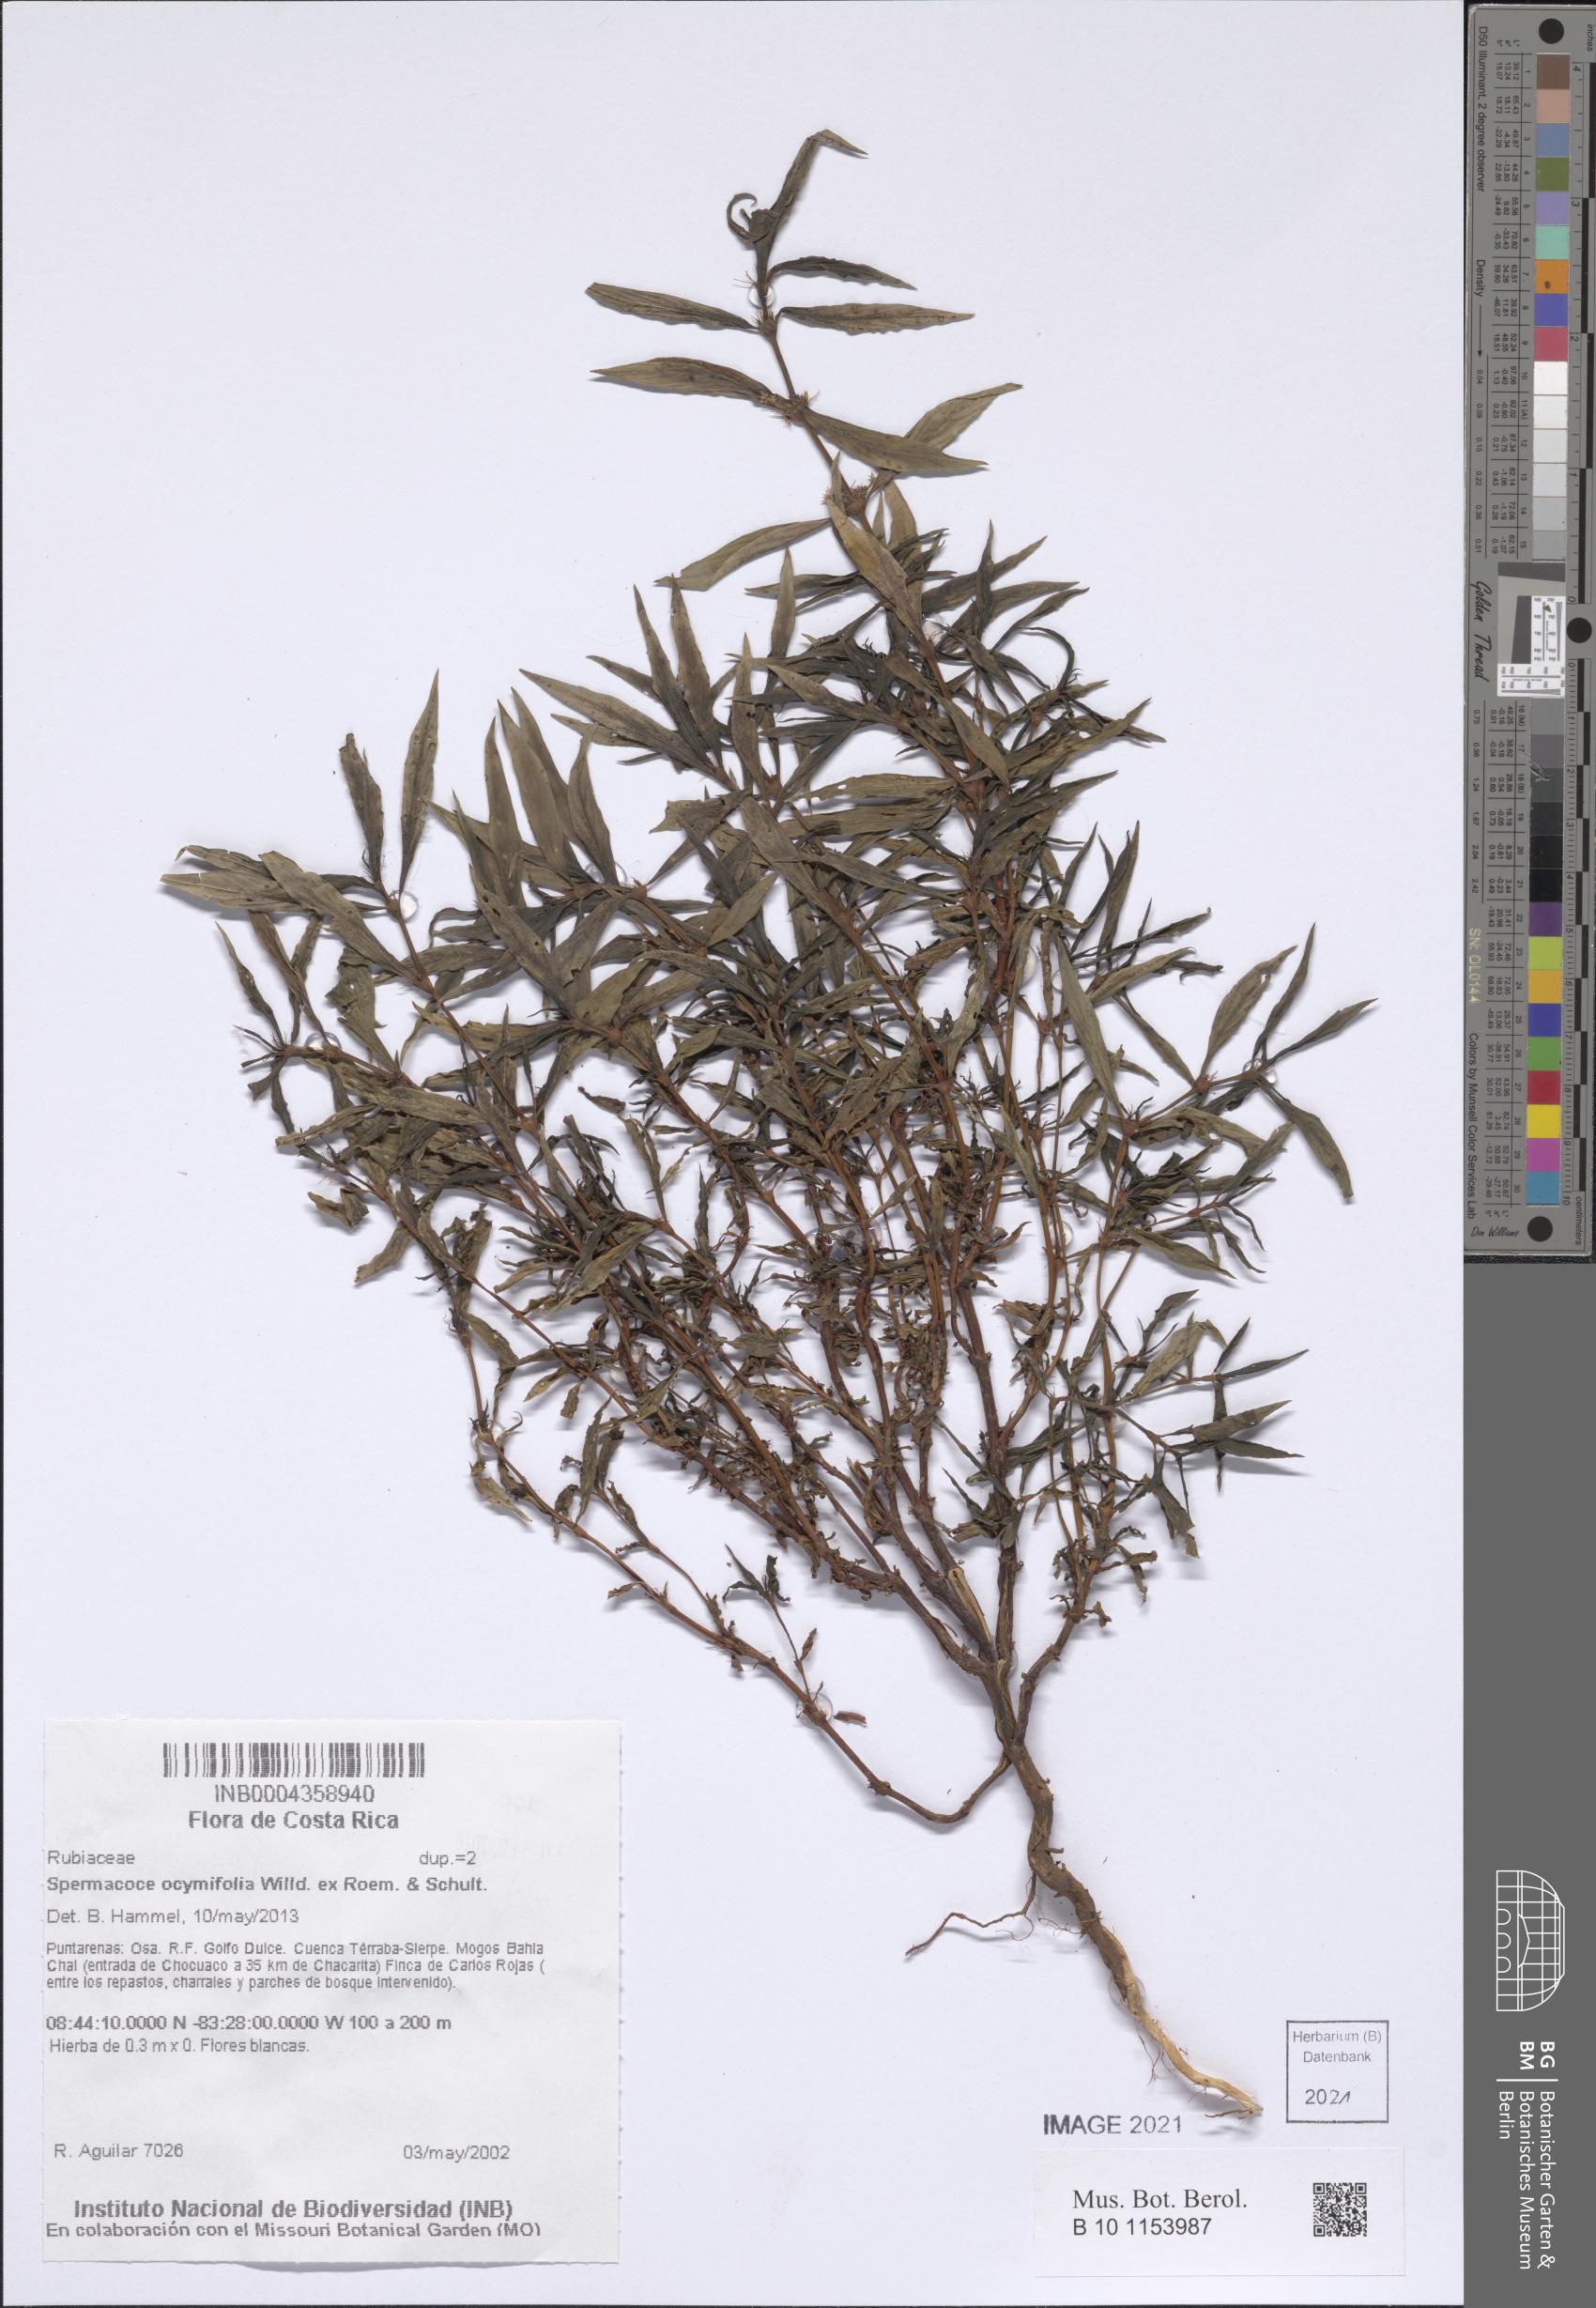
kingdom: Plantae
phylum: Tracheophyta
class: Magnoliopsida
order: Gentianales
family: Rubiaceae
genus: Spermacoce
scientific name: Spermacoce ocymifolia
